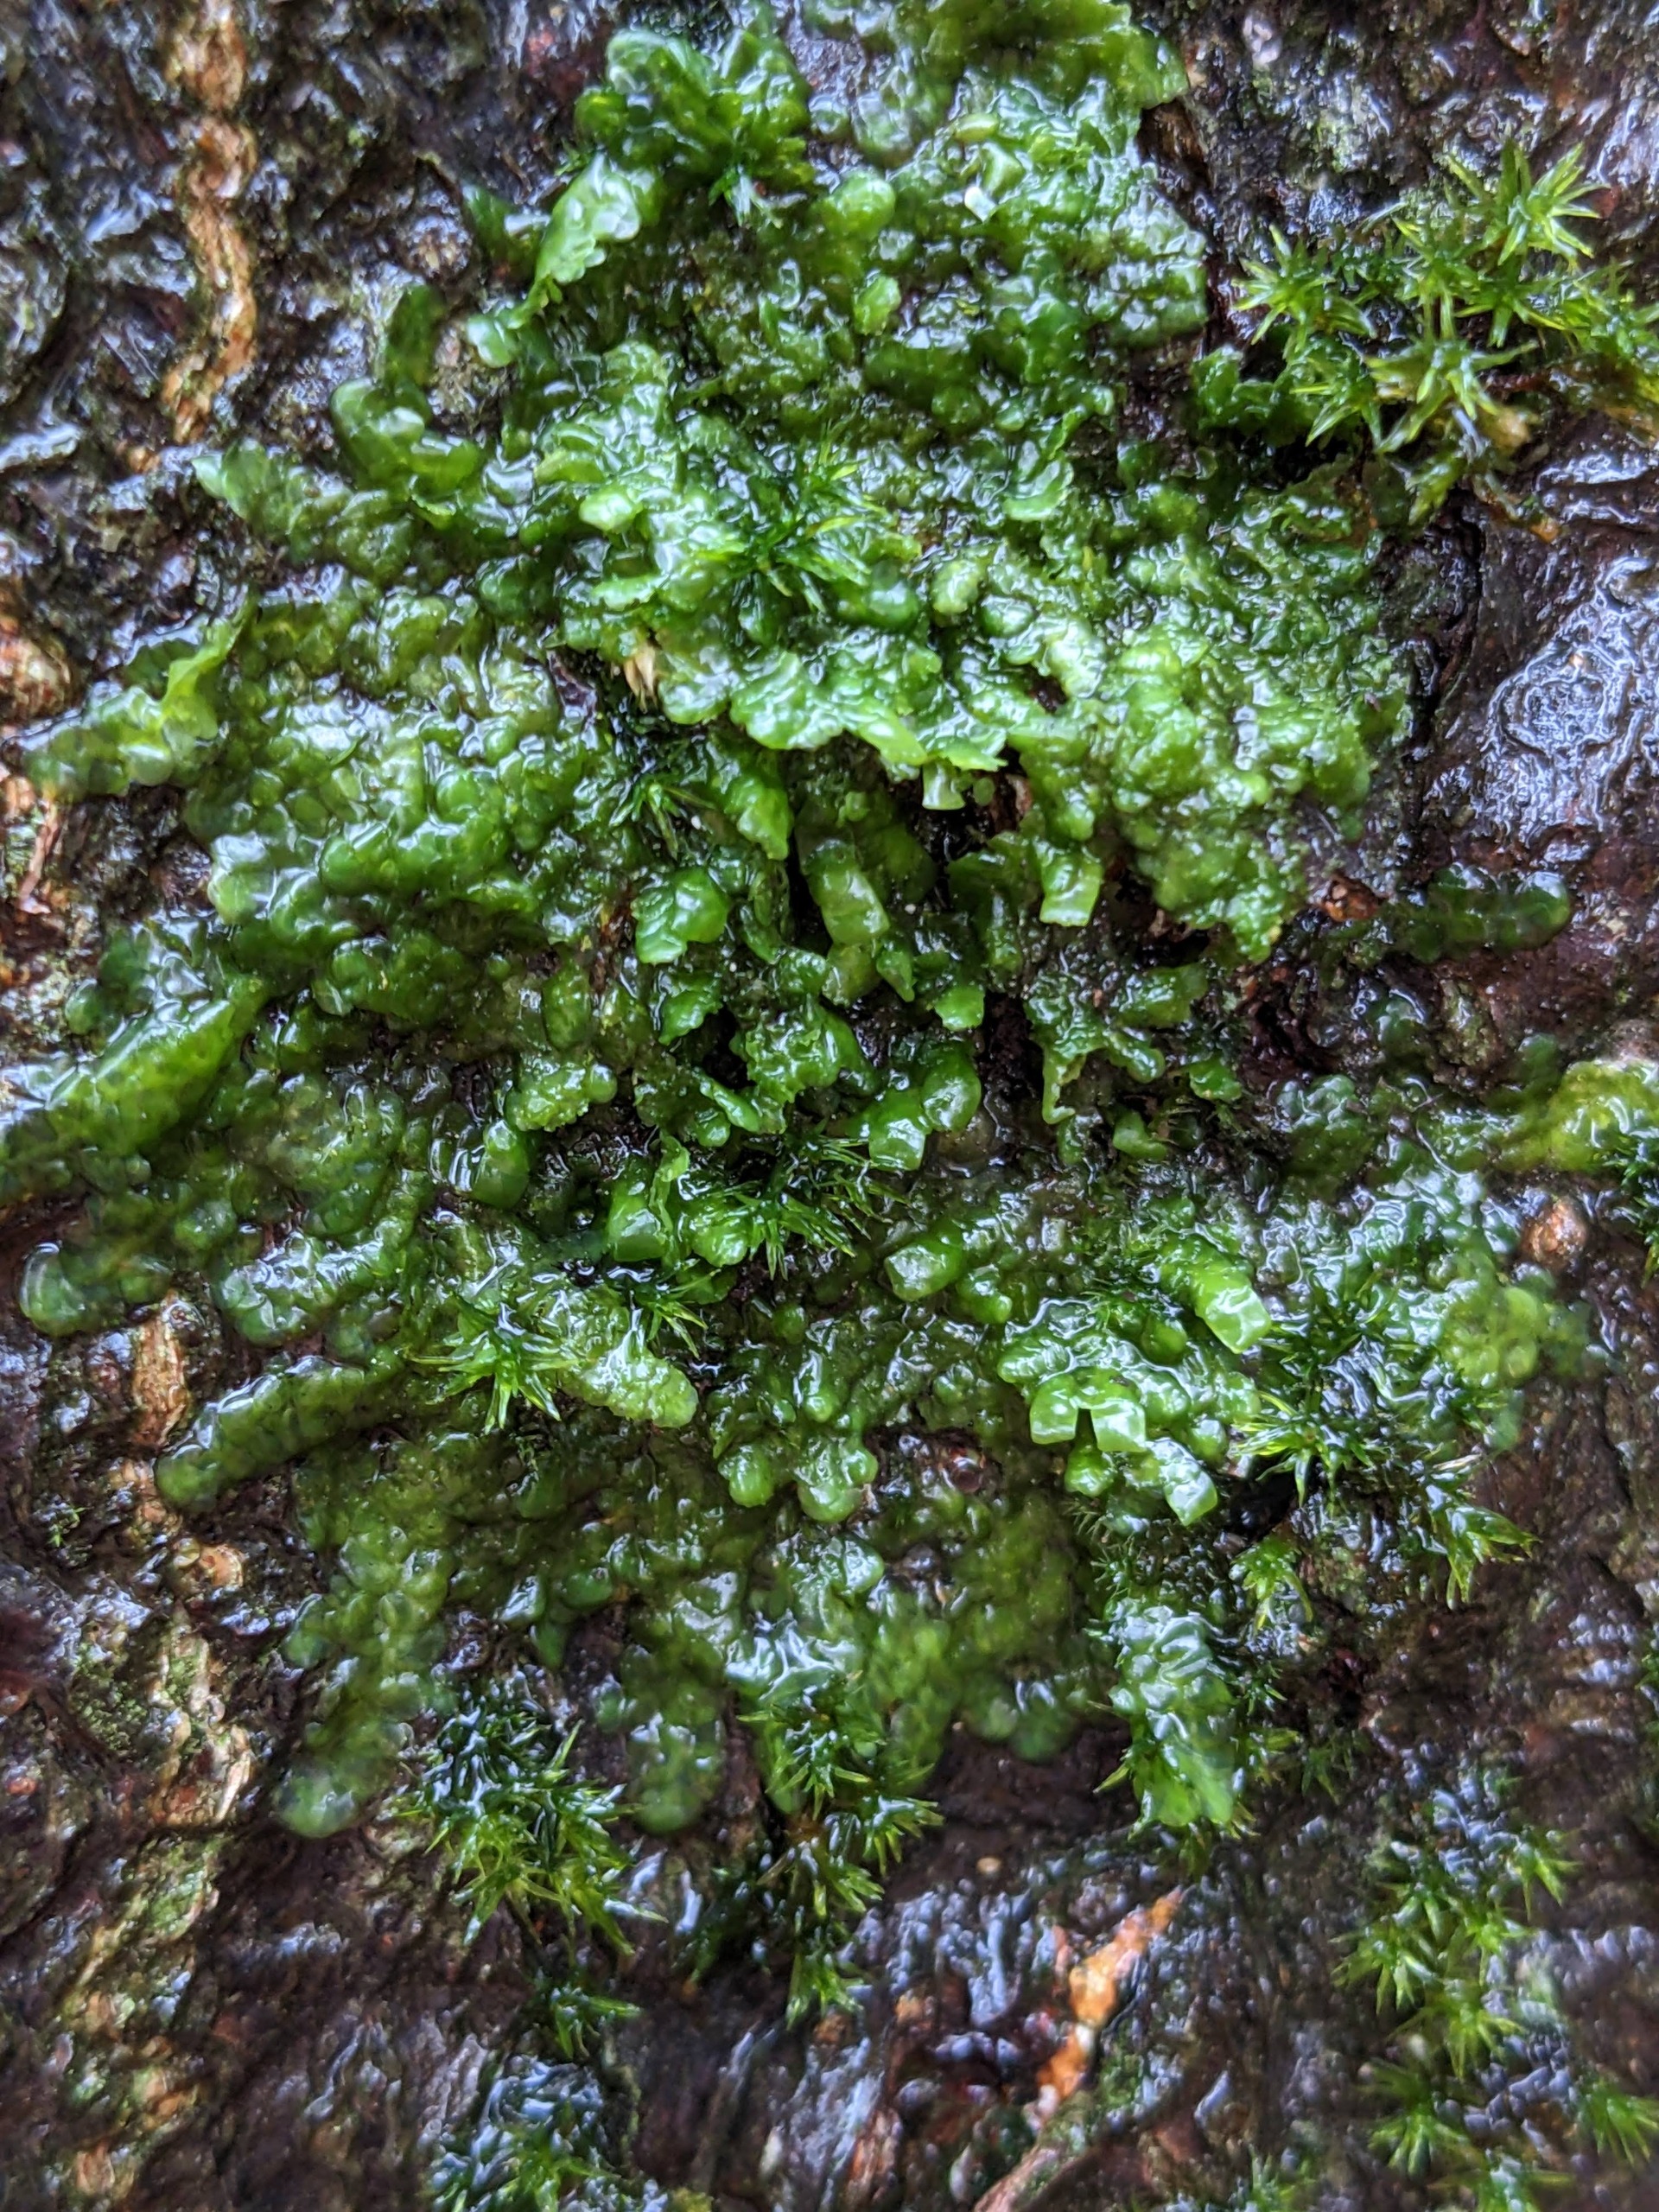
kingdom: Plantae
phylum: Marchantiophyta
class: Jungermanniopsida
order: Porellales
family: Radulaceae
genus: Radula
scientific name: Radula complanata
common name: Almindelig spartelmos
